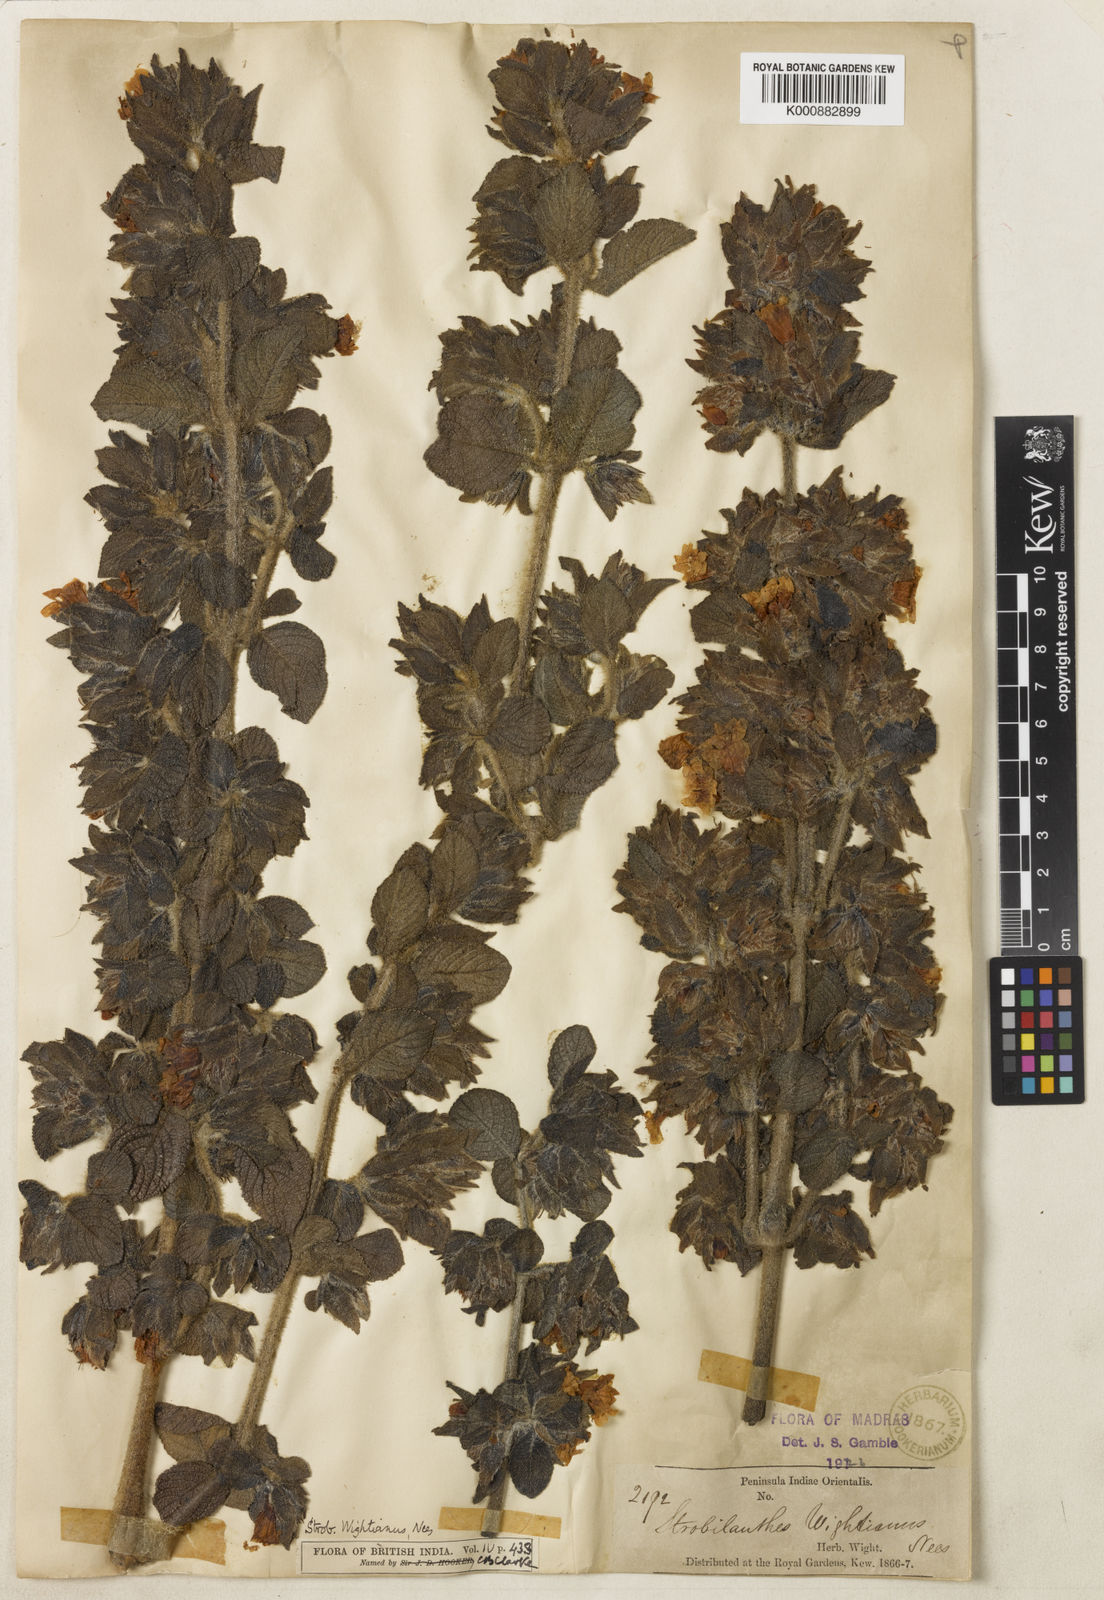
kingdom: Plantae
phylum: Tracheophyta
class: Magnoliopsida
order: Lamiales
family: Acanthaceae
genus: Strobilanthes
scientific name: Strobilanthes wightiana
